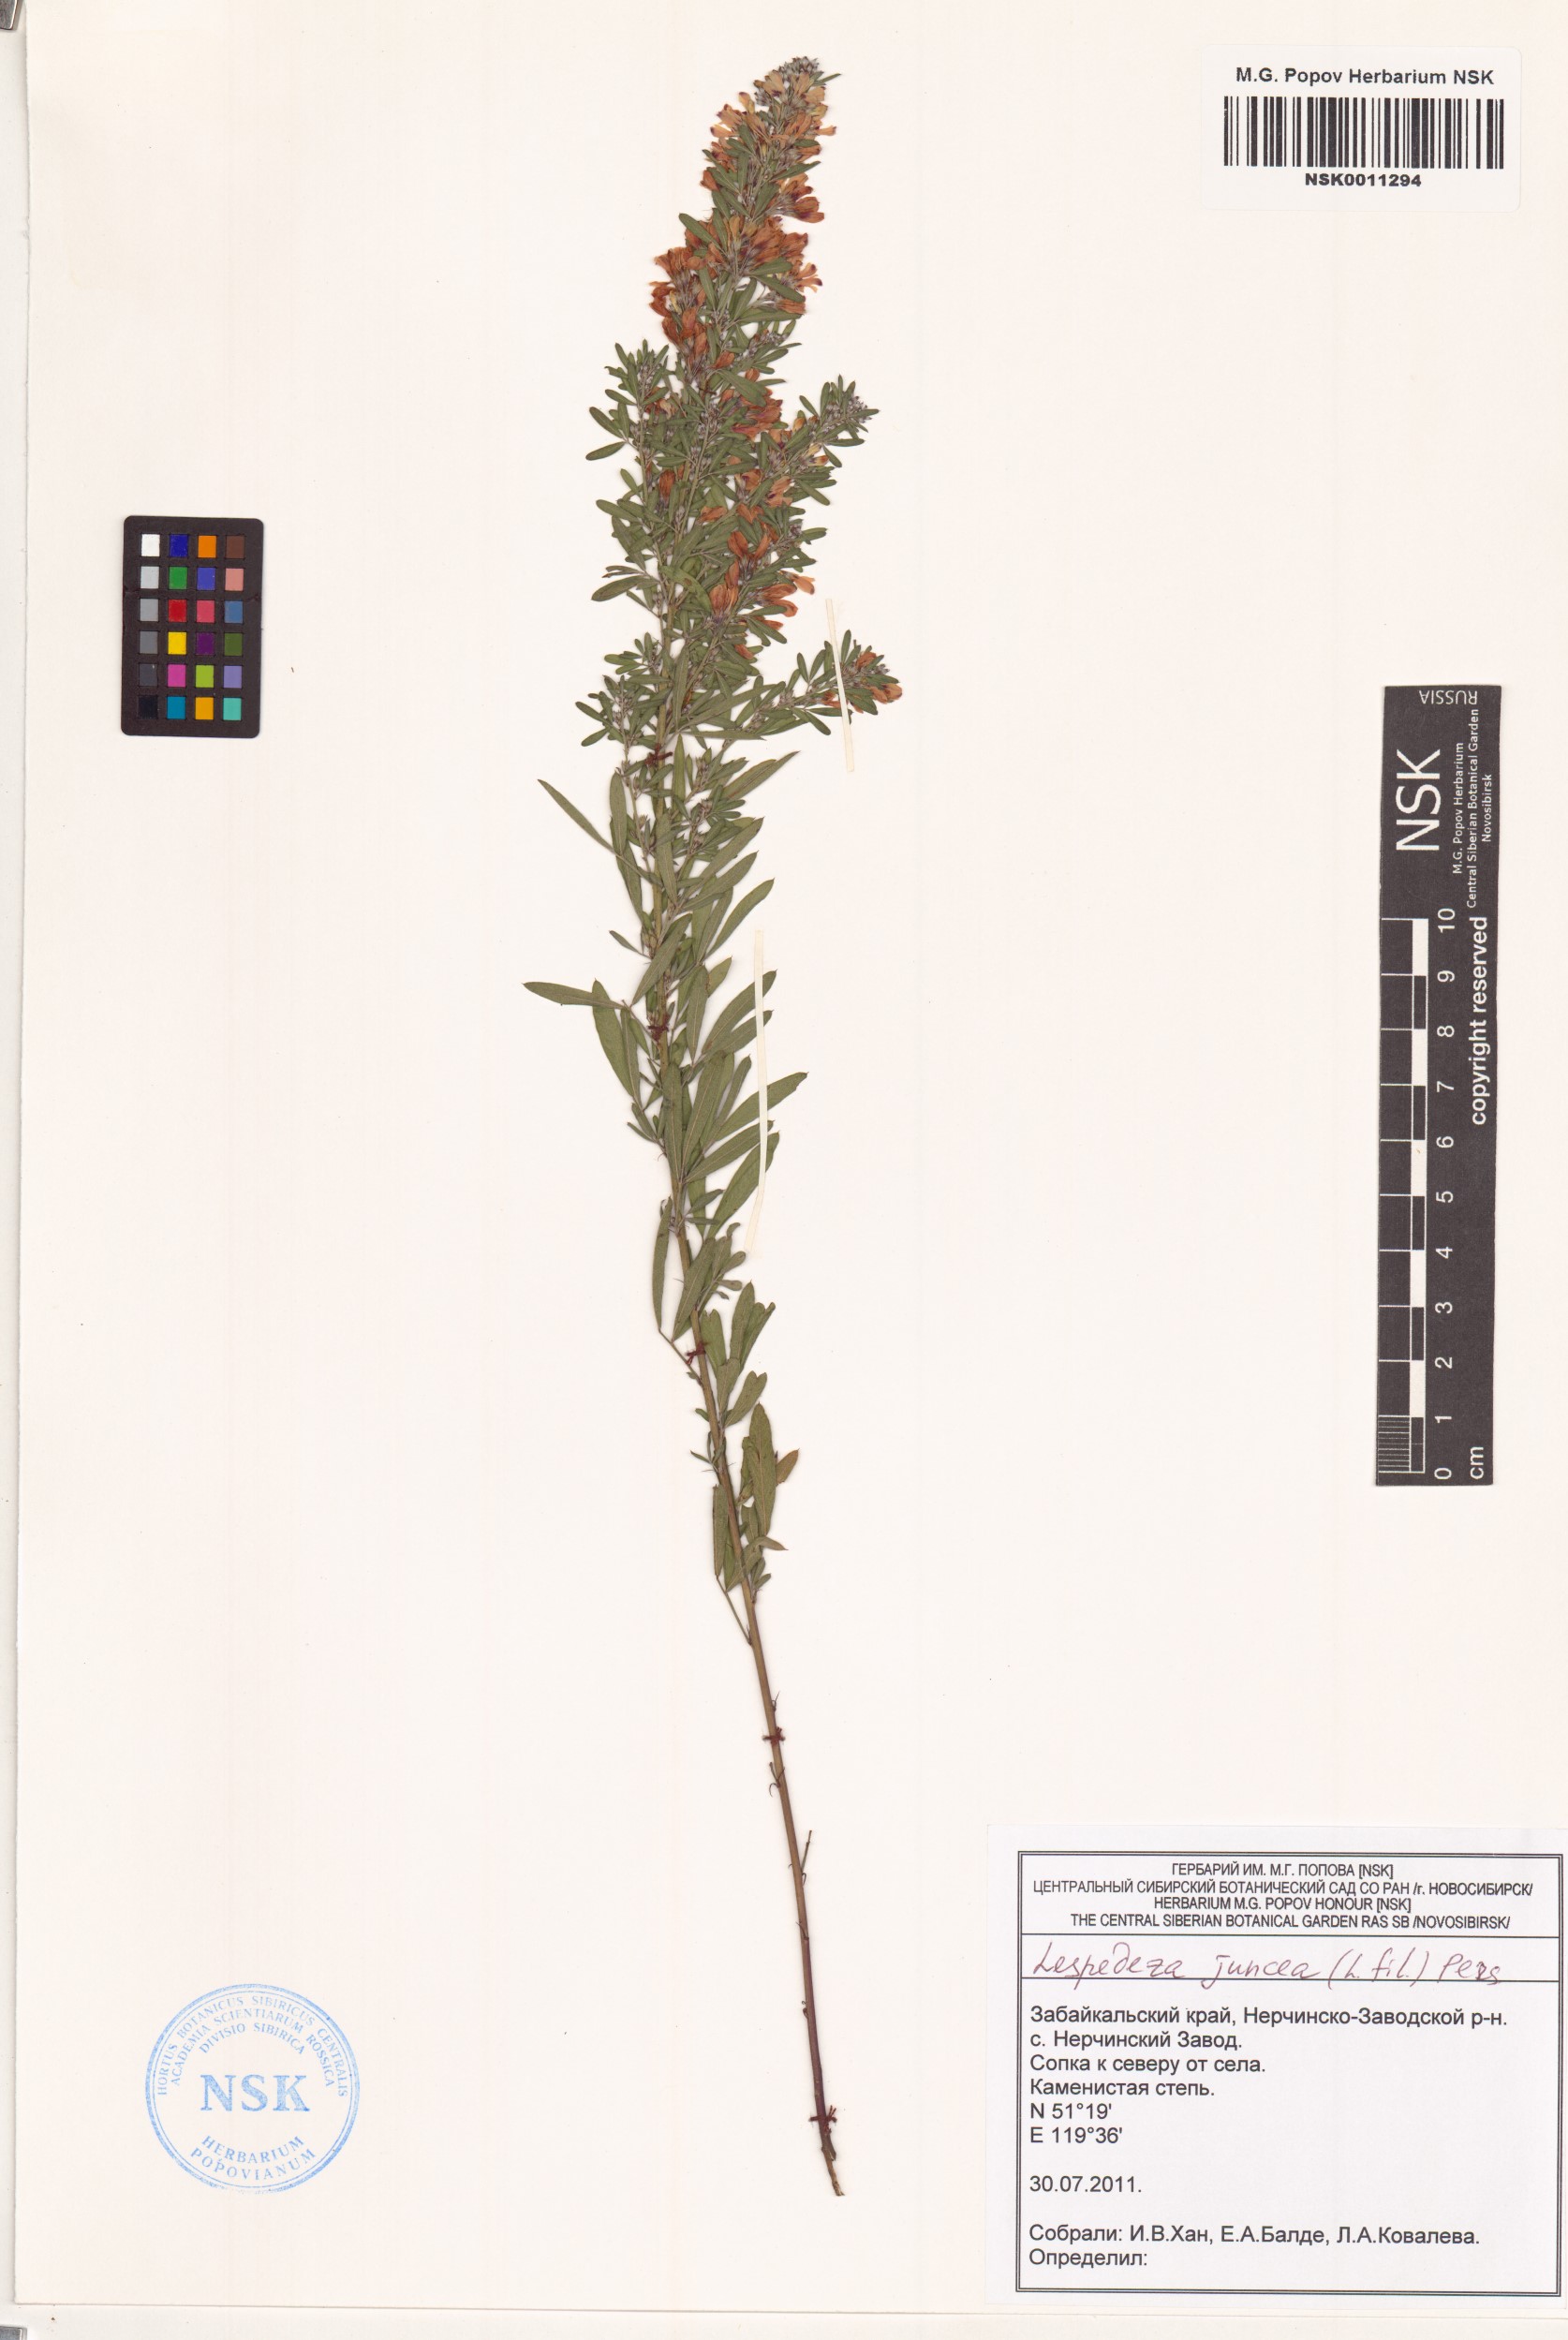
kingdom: Plantae
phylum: Tracheophyta
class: Magnoliopsida
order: Fabales
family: Fabaceae
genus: Lespedeza
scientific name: Lespedeza juncea
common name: Siberian lespedeza
